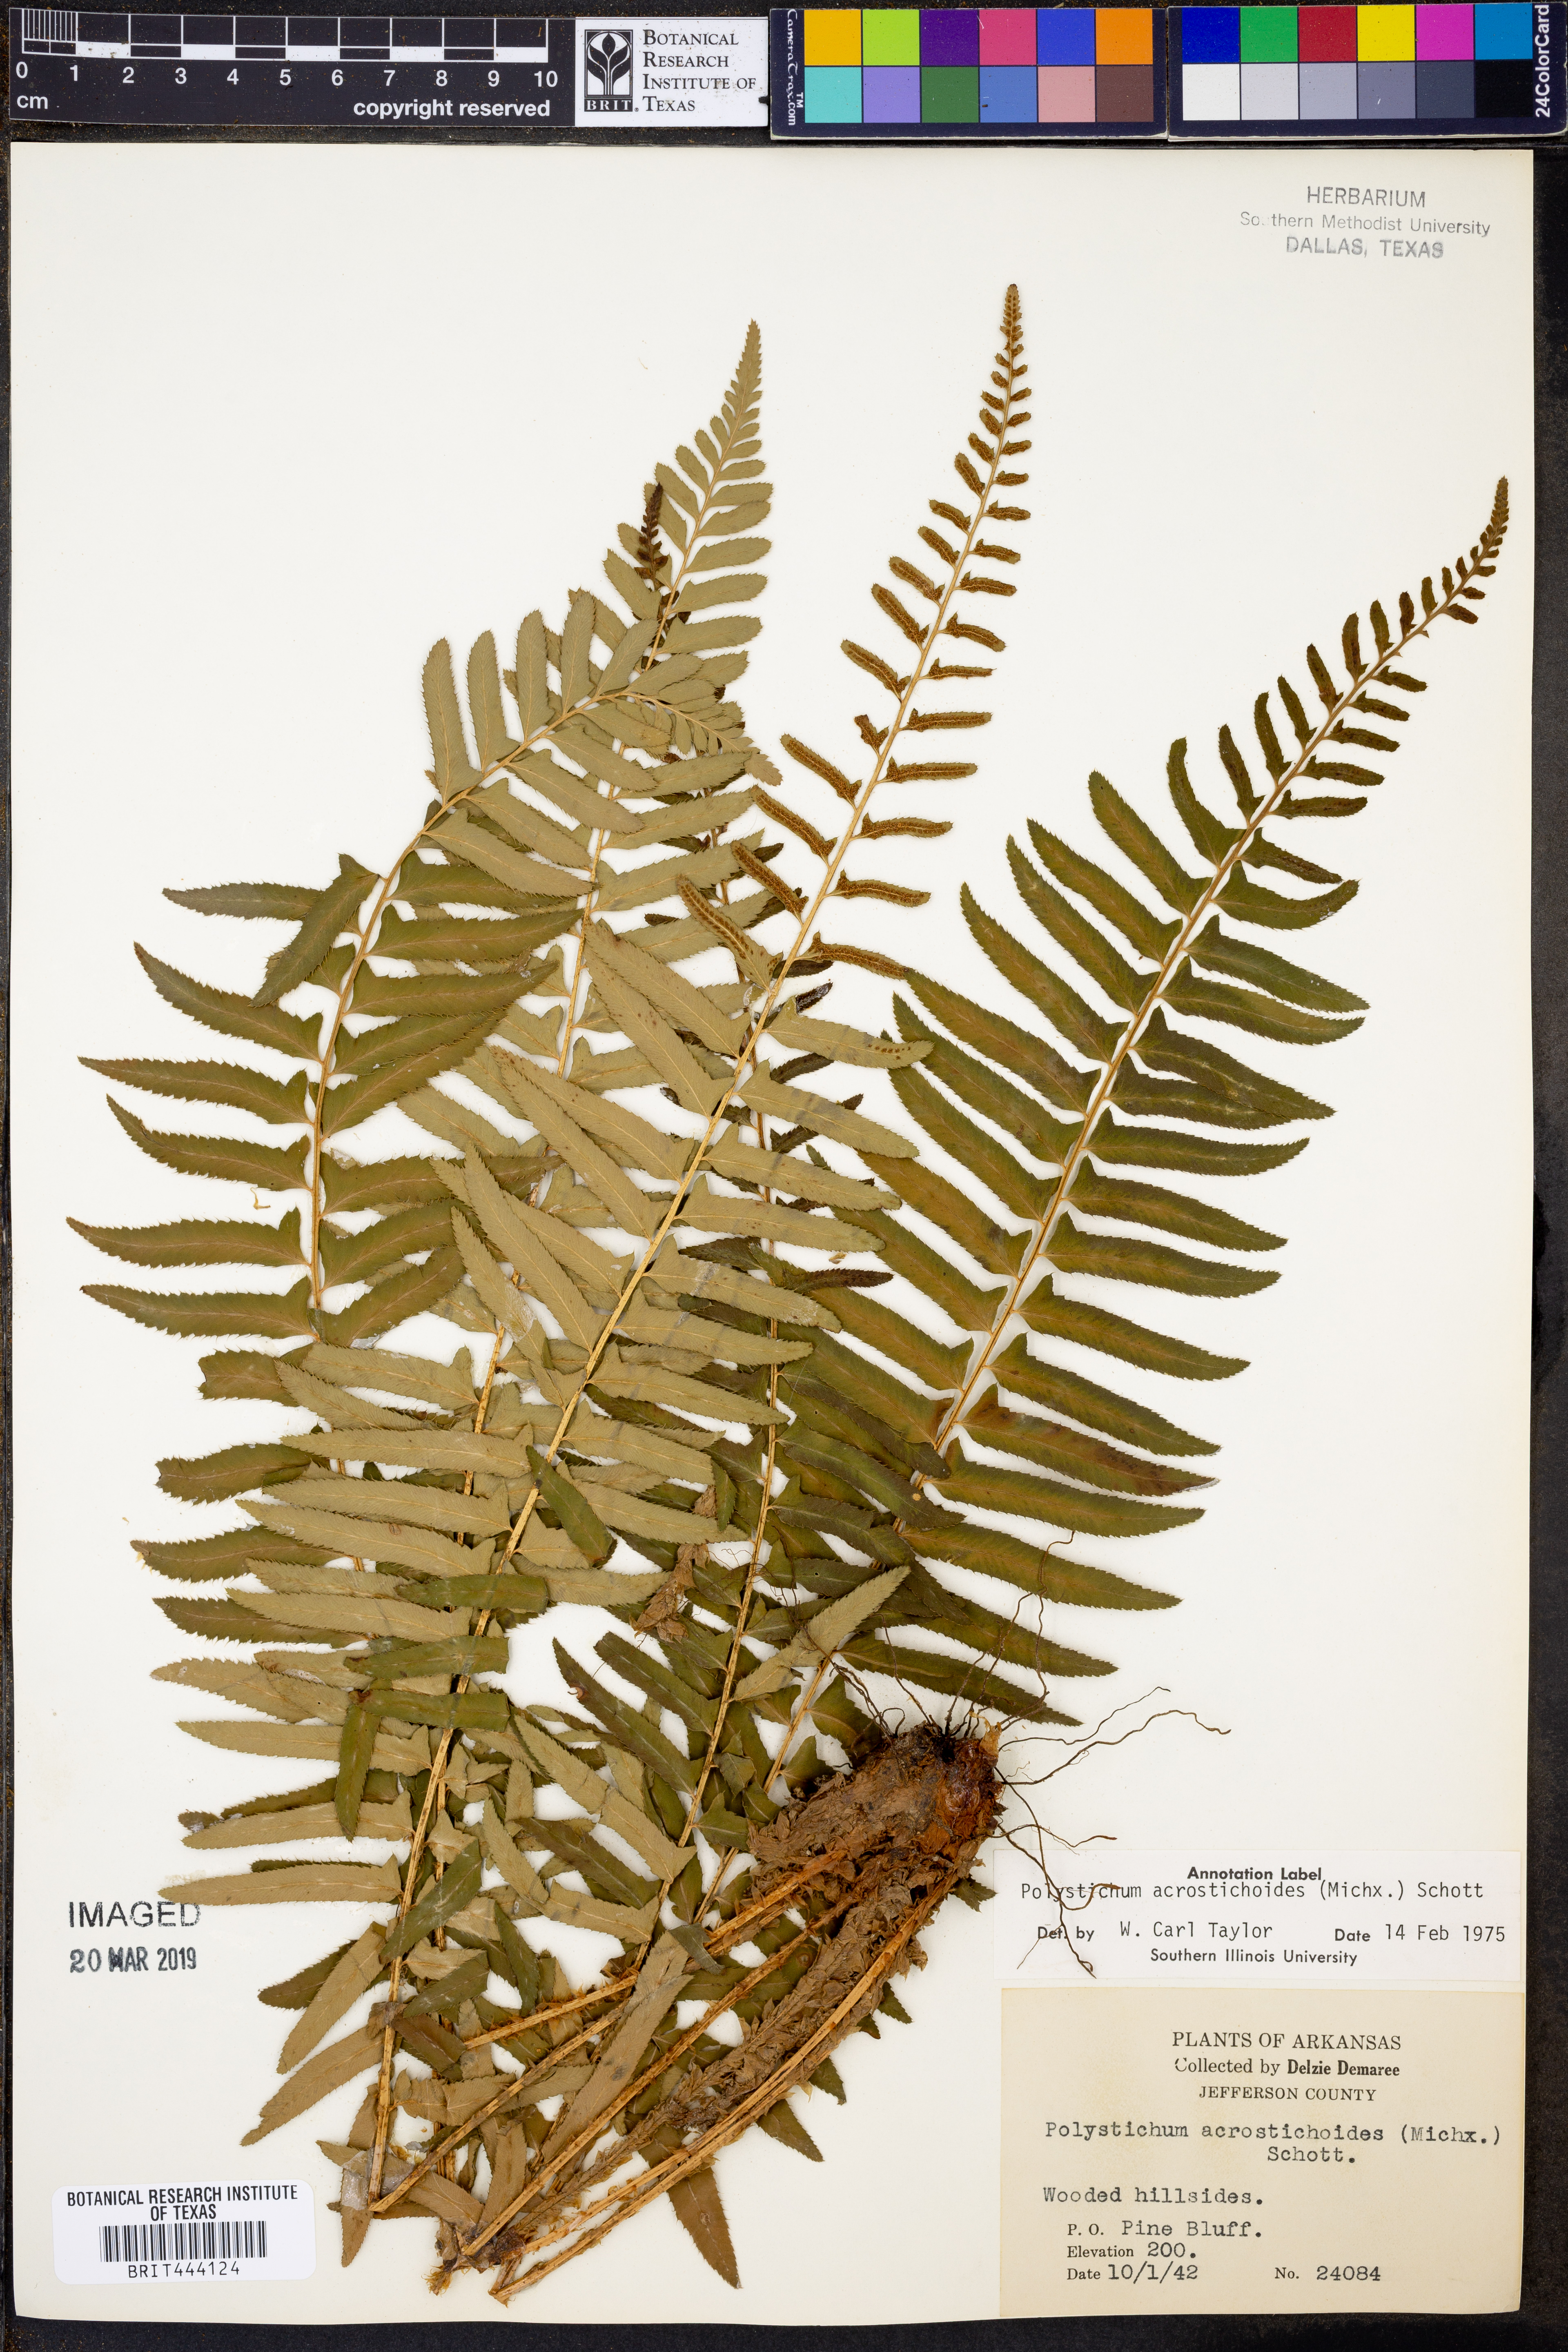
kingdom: Plantae
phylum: Tracheophyta
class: Polypodiopsida
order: Polypodiales
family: Dryopteridaceae
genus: Polystichum
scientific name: Polystichum acrostichoides
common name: Christmas fern
